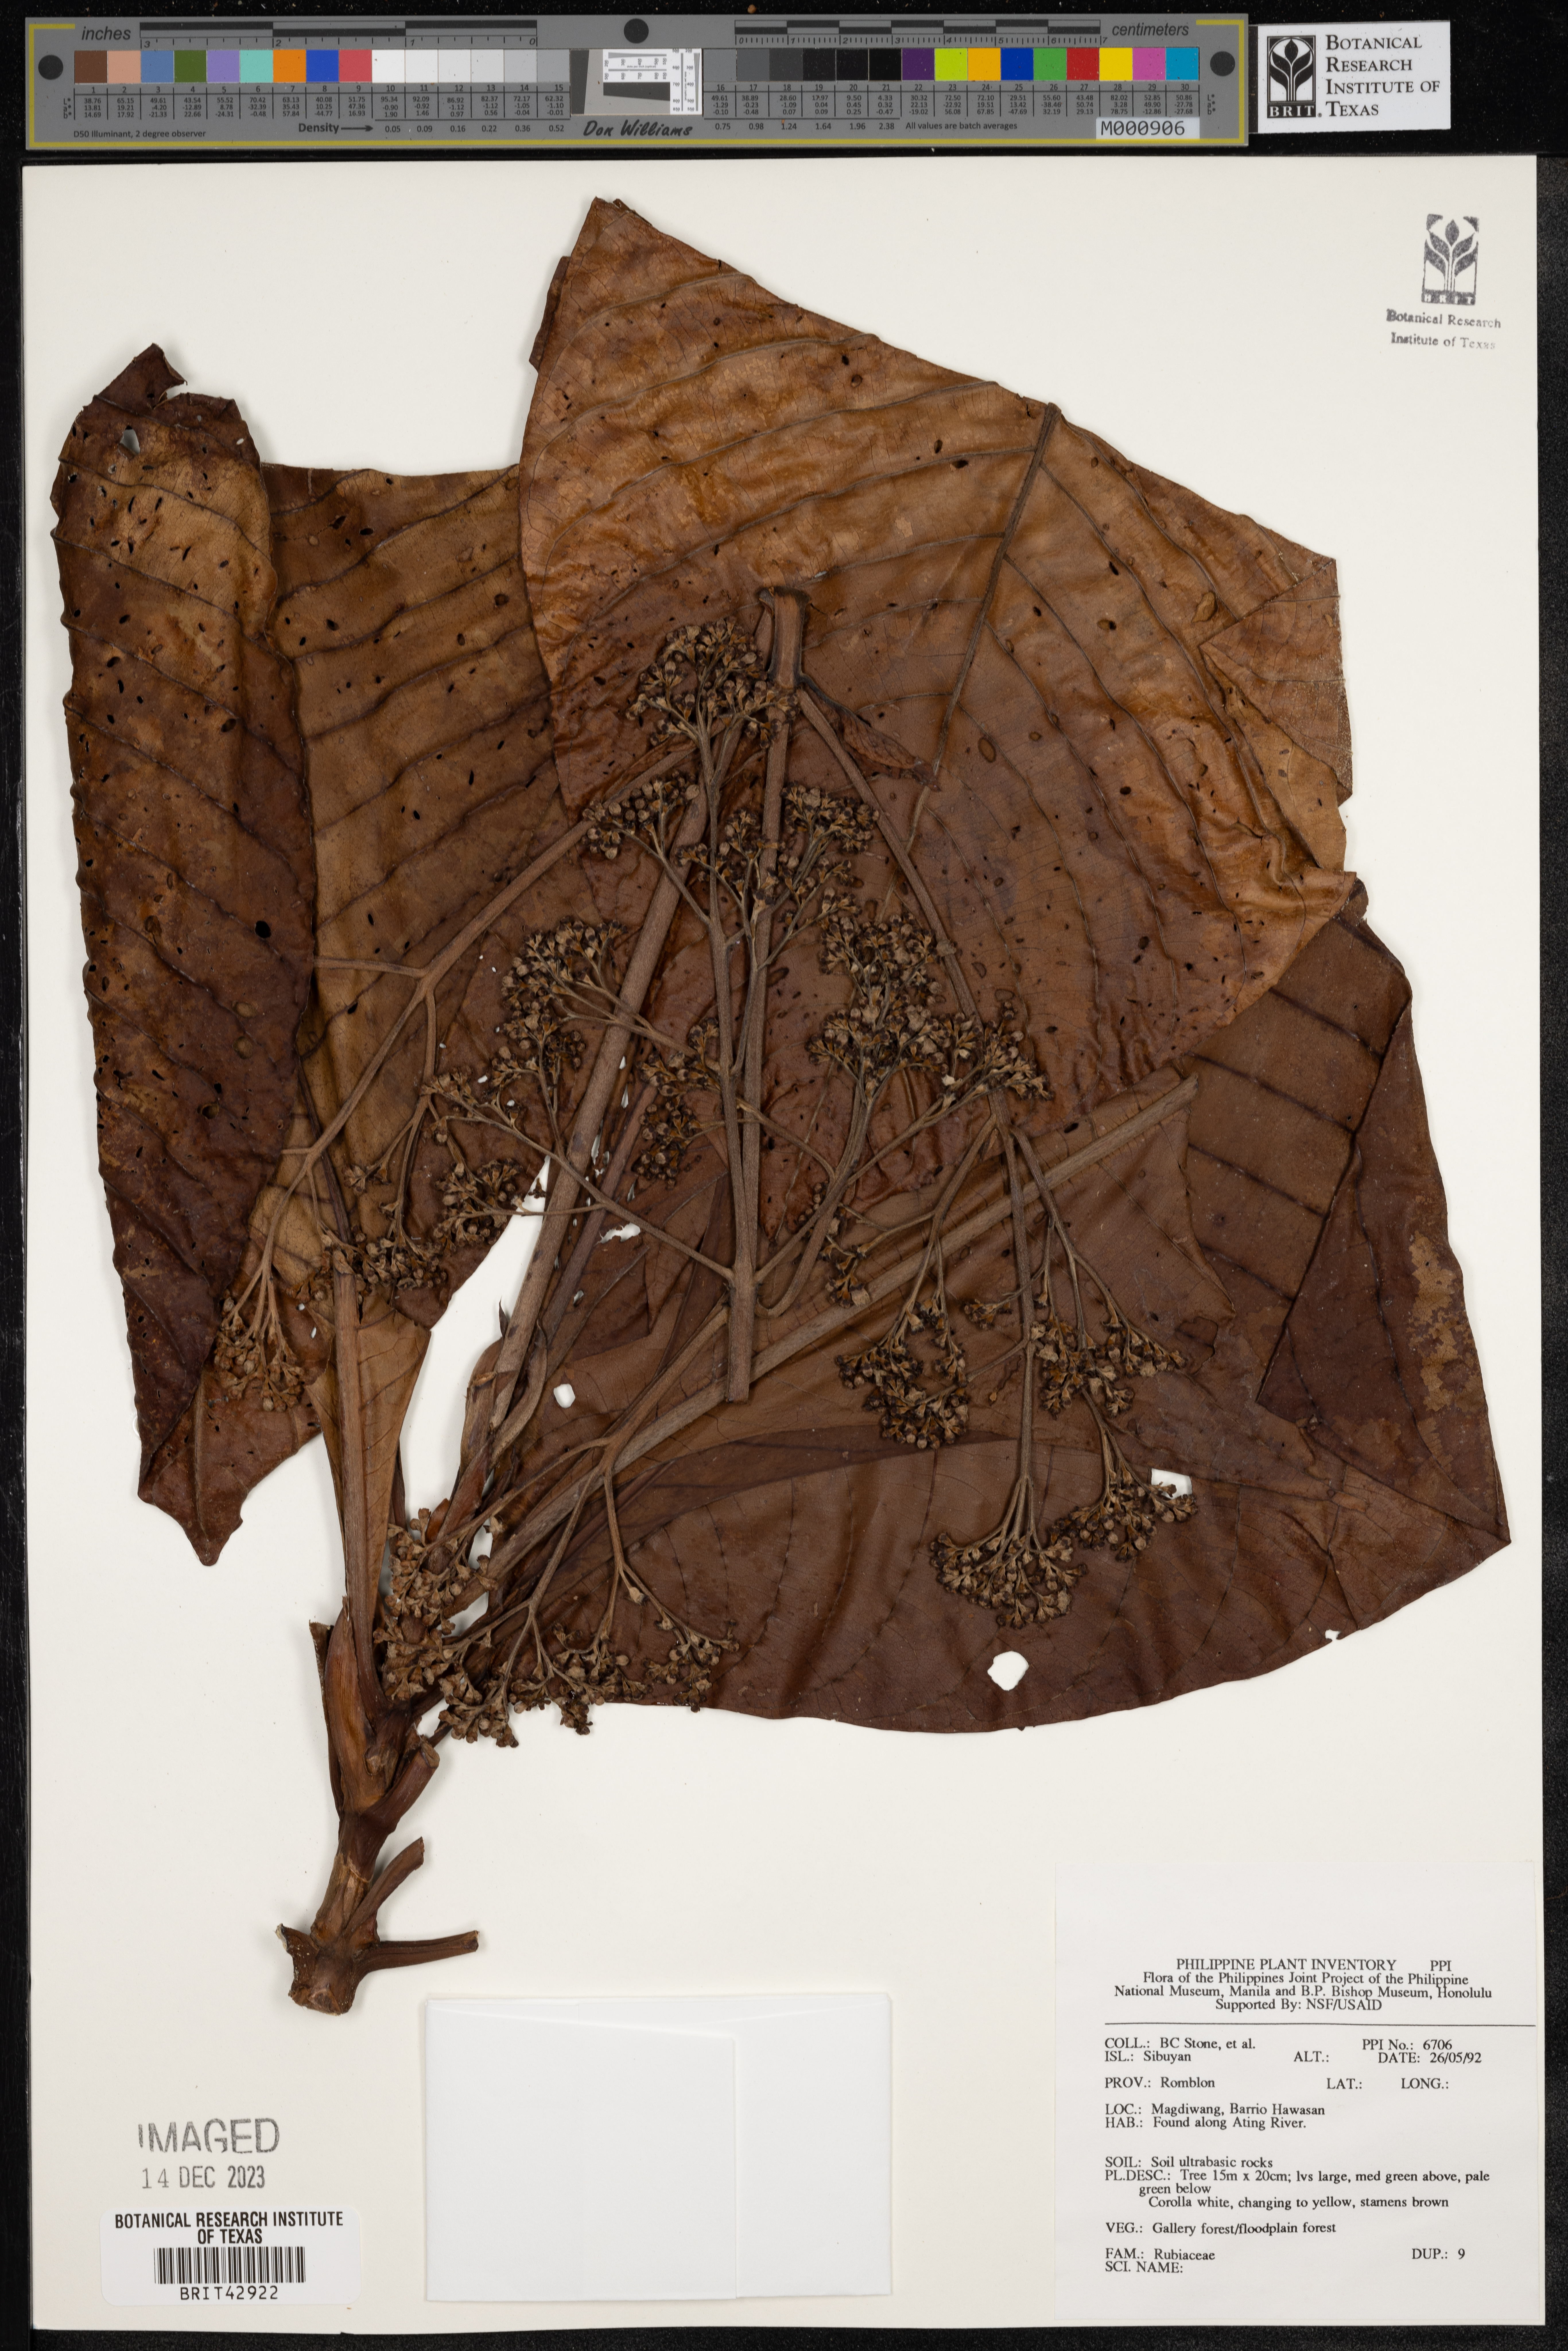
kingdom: Plantae
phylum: Tracheophyta
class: Magnoliopsida
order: Gentianales
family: Rubiaceae
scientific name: Rubiaceae
